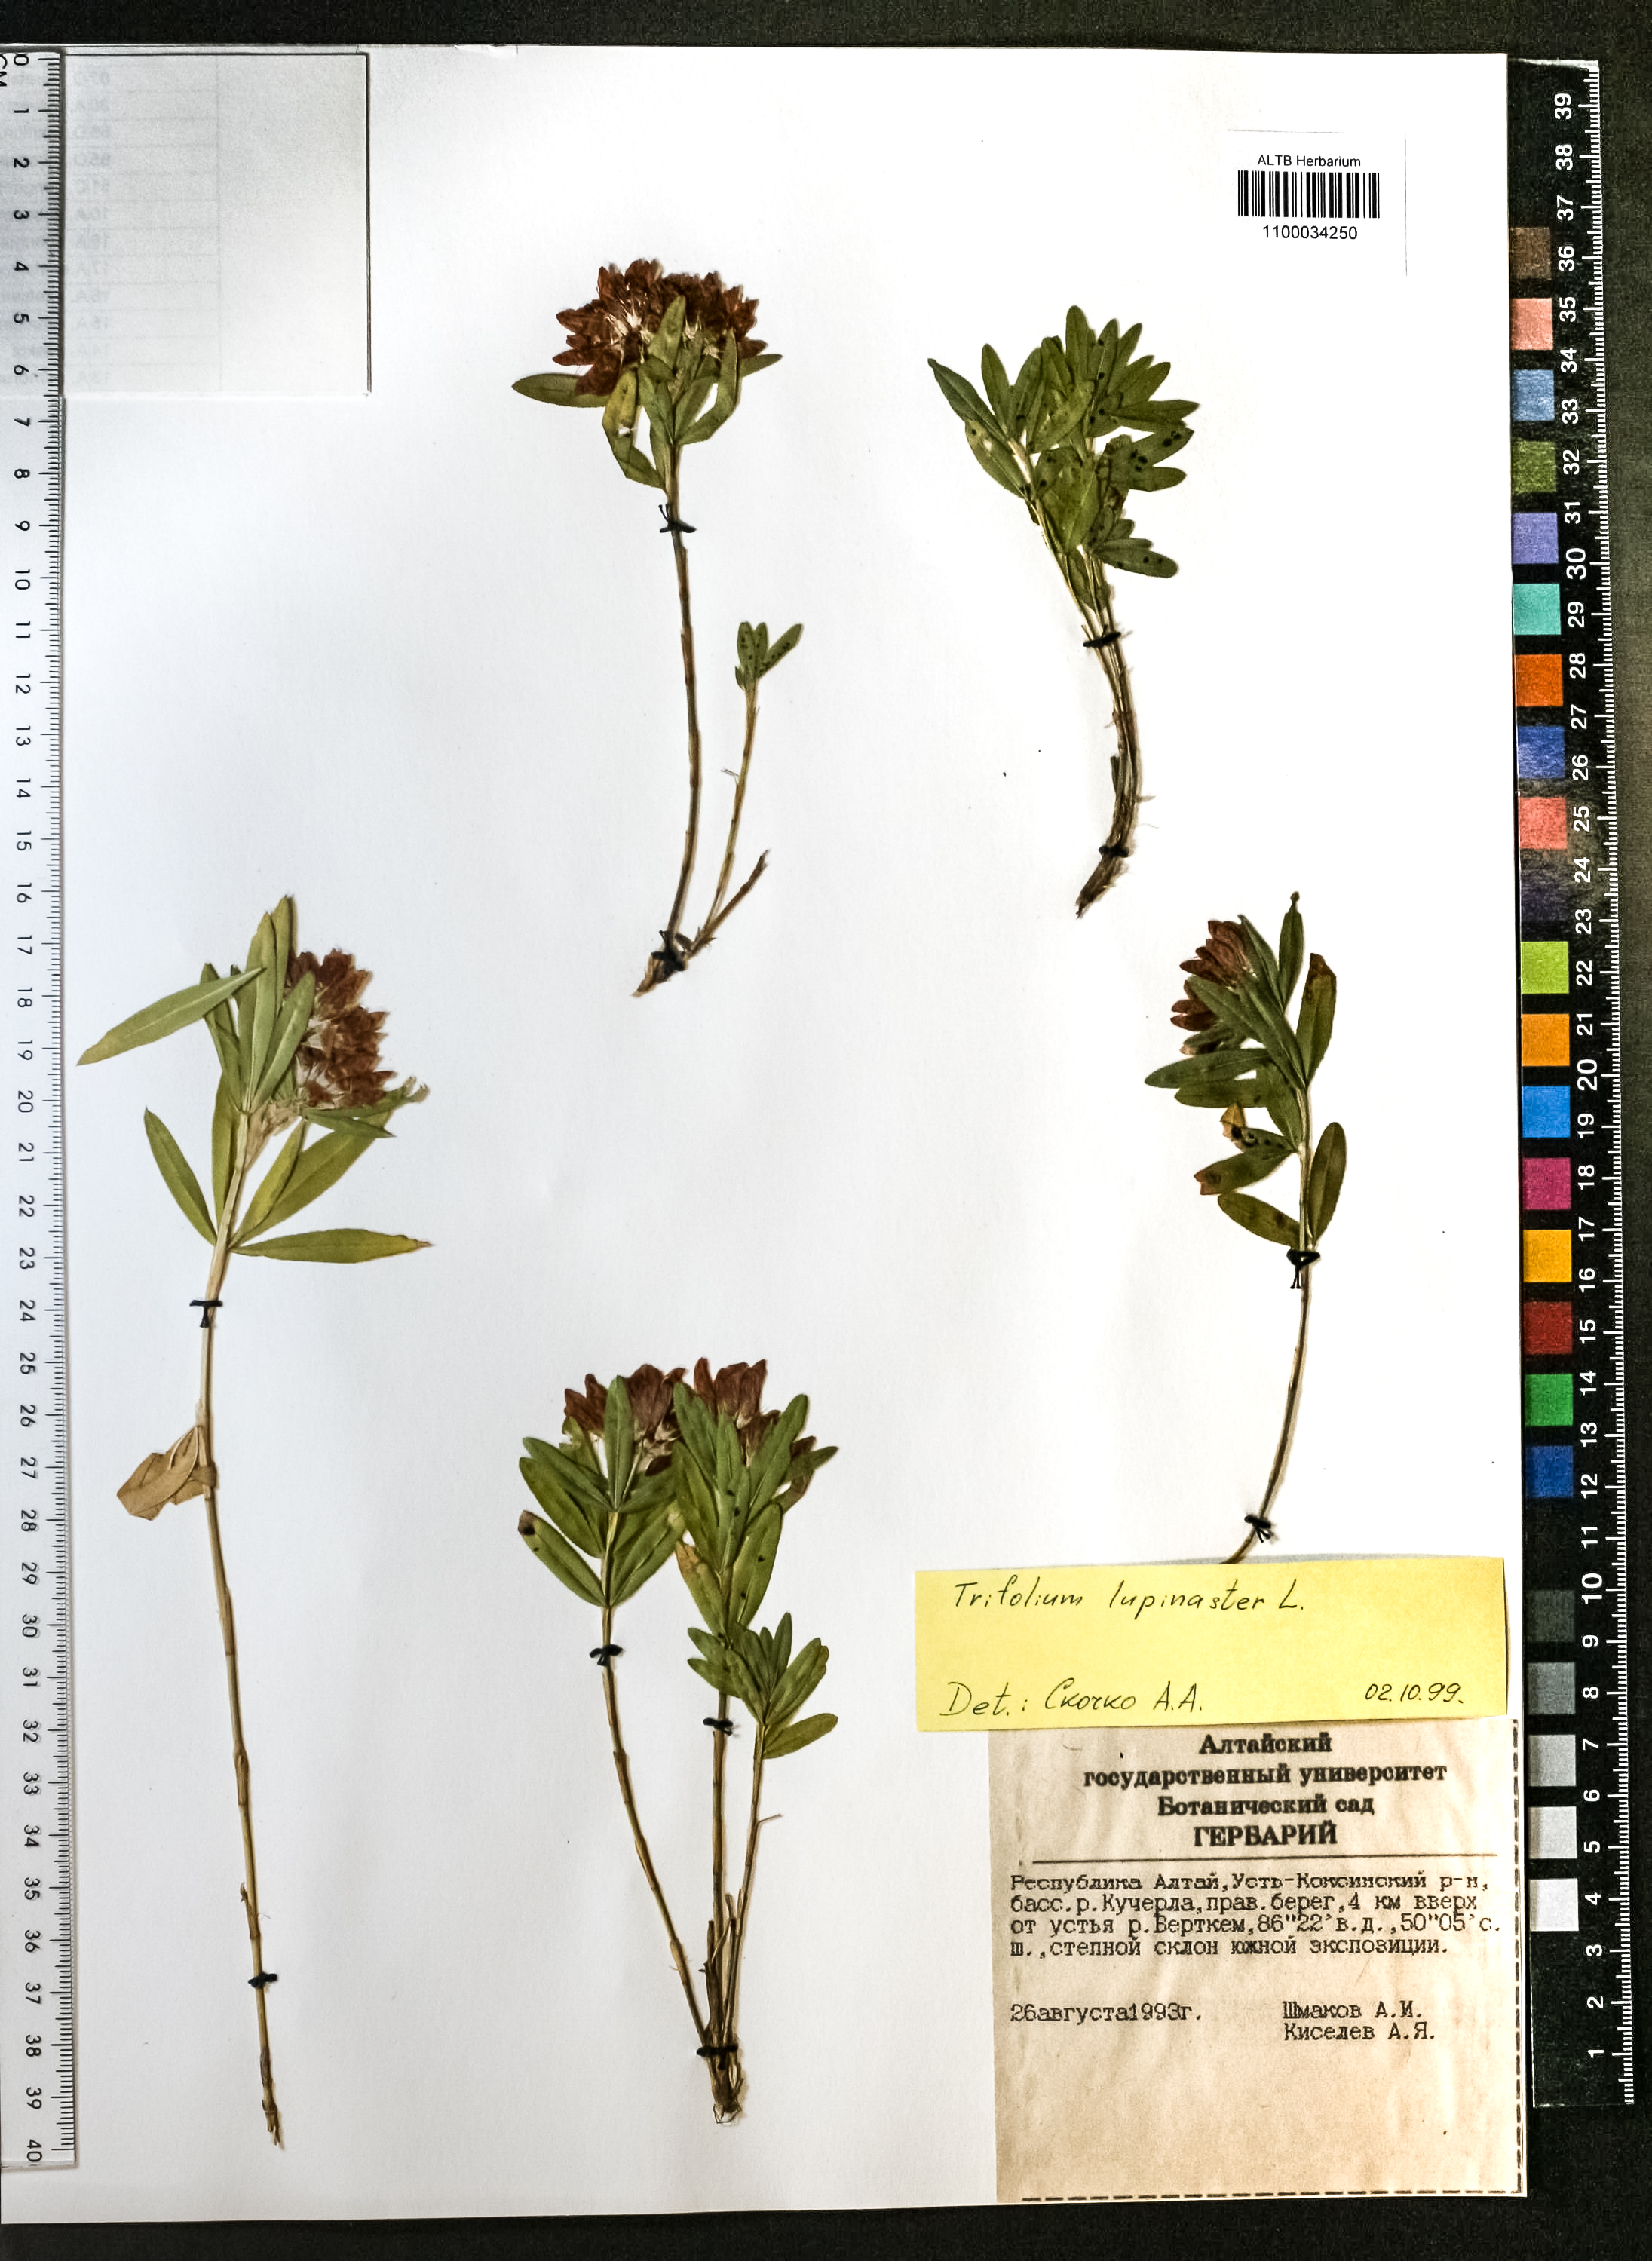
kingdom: Plantae
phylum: Tracheophyta
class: Magnoliopsida
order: Fabales
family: Fabaceae
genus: Trifolium
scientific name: Trifolium lupinaster
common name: Lupine clover
